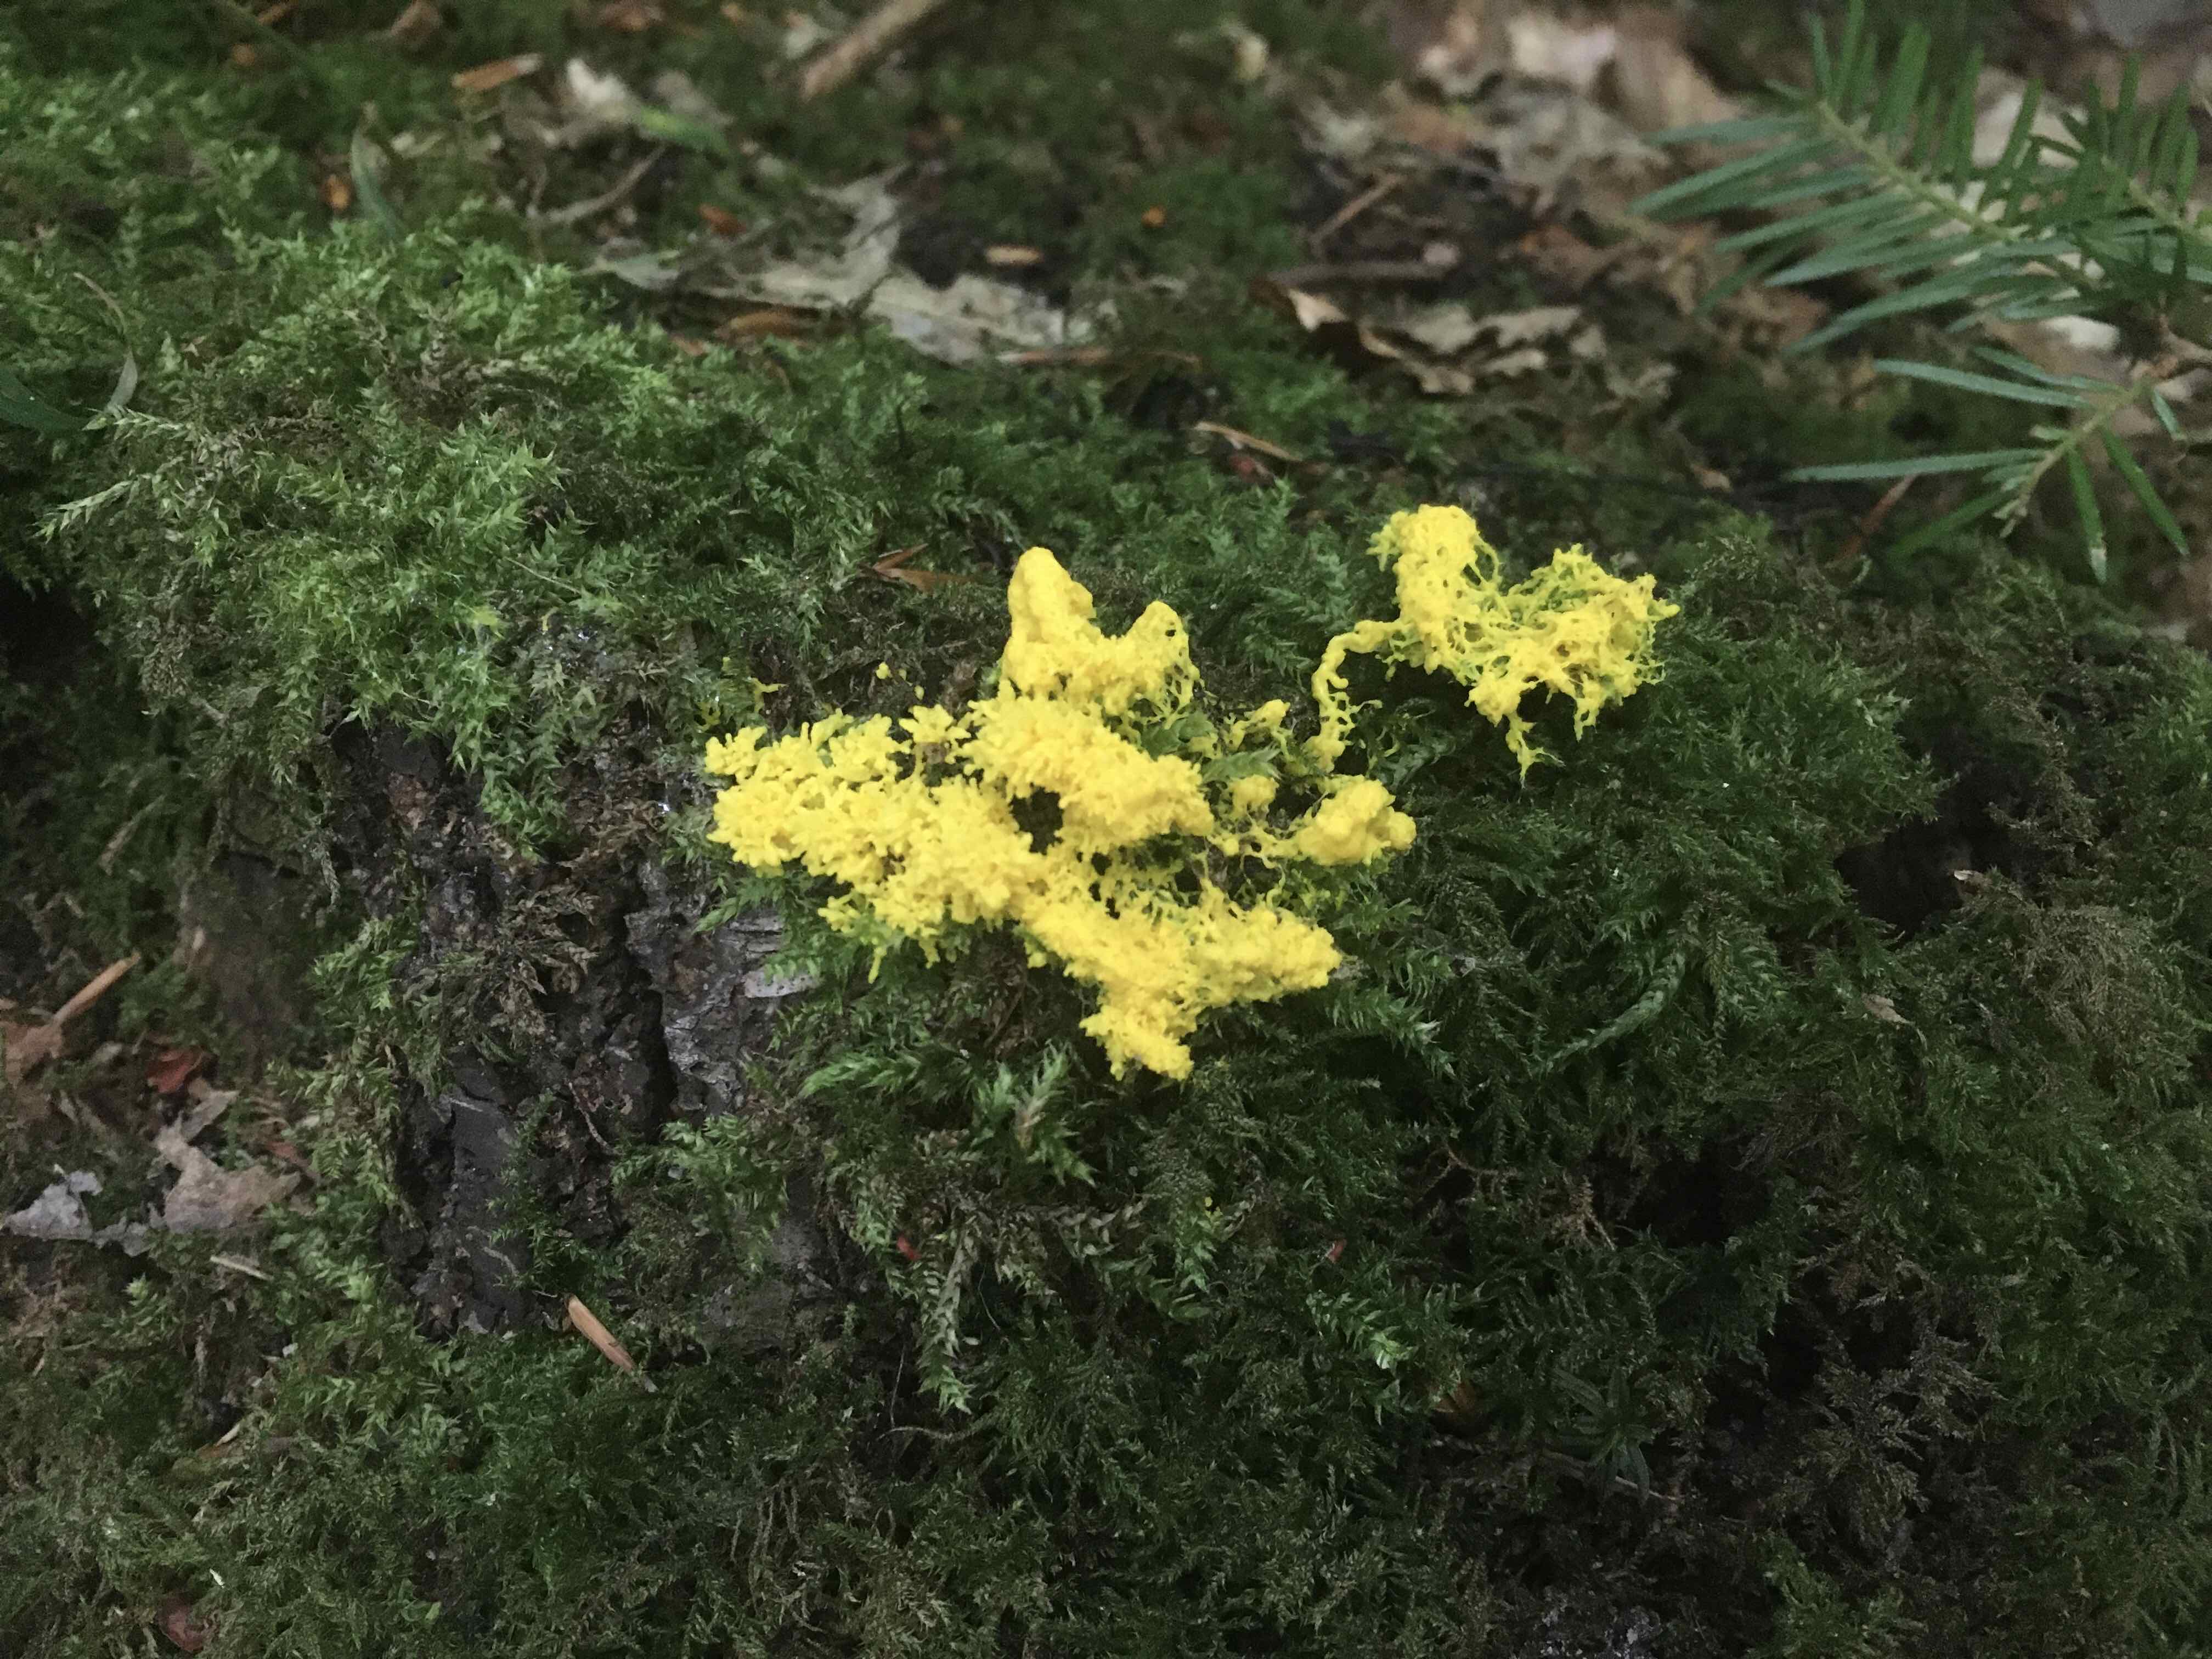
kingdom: Protozoa
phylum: Mycetozoa
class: Myxomycetes
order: Physarales
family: Physaraceae
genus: Fuligo
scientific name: Fuligo septica
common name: gul troldsmør
